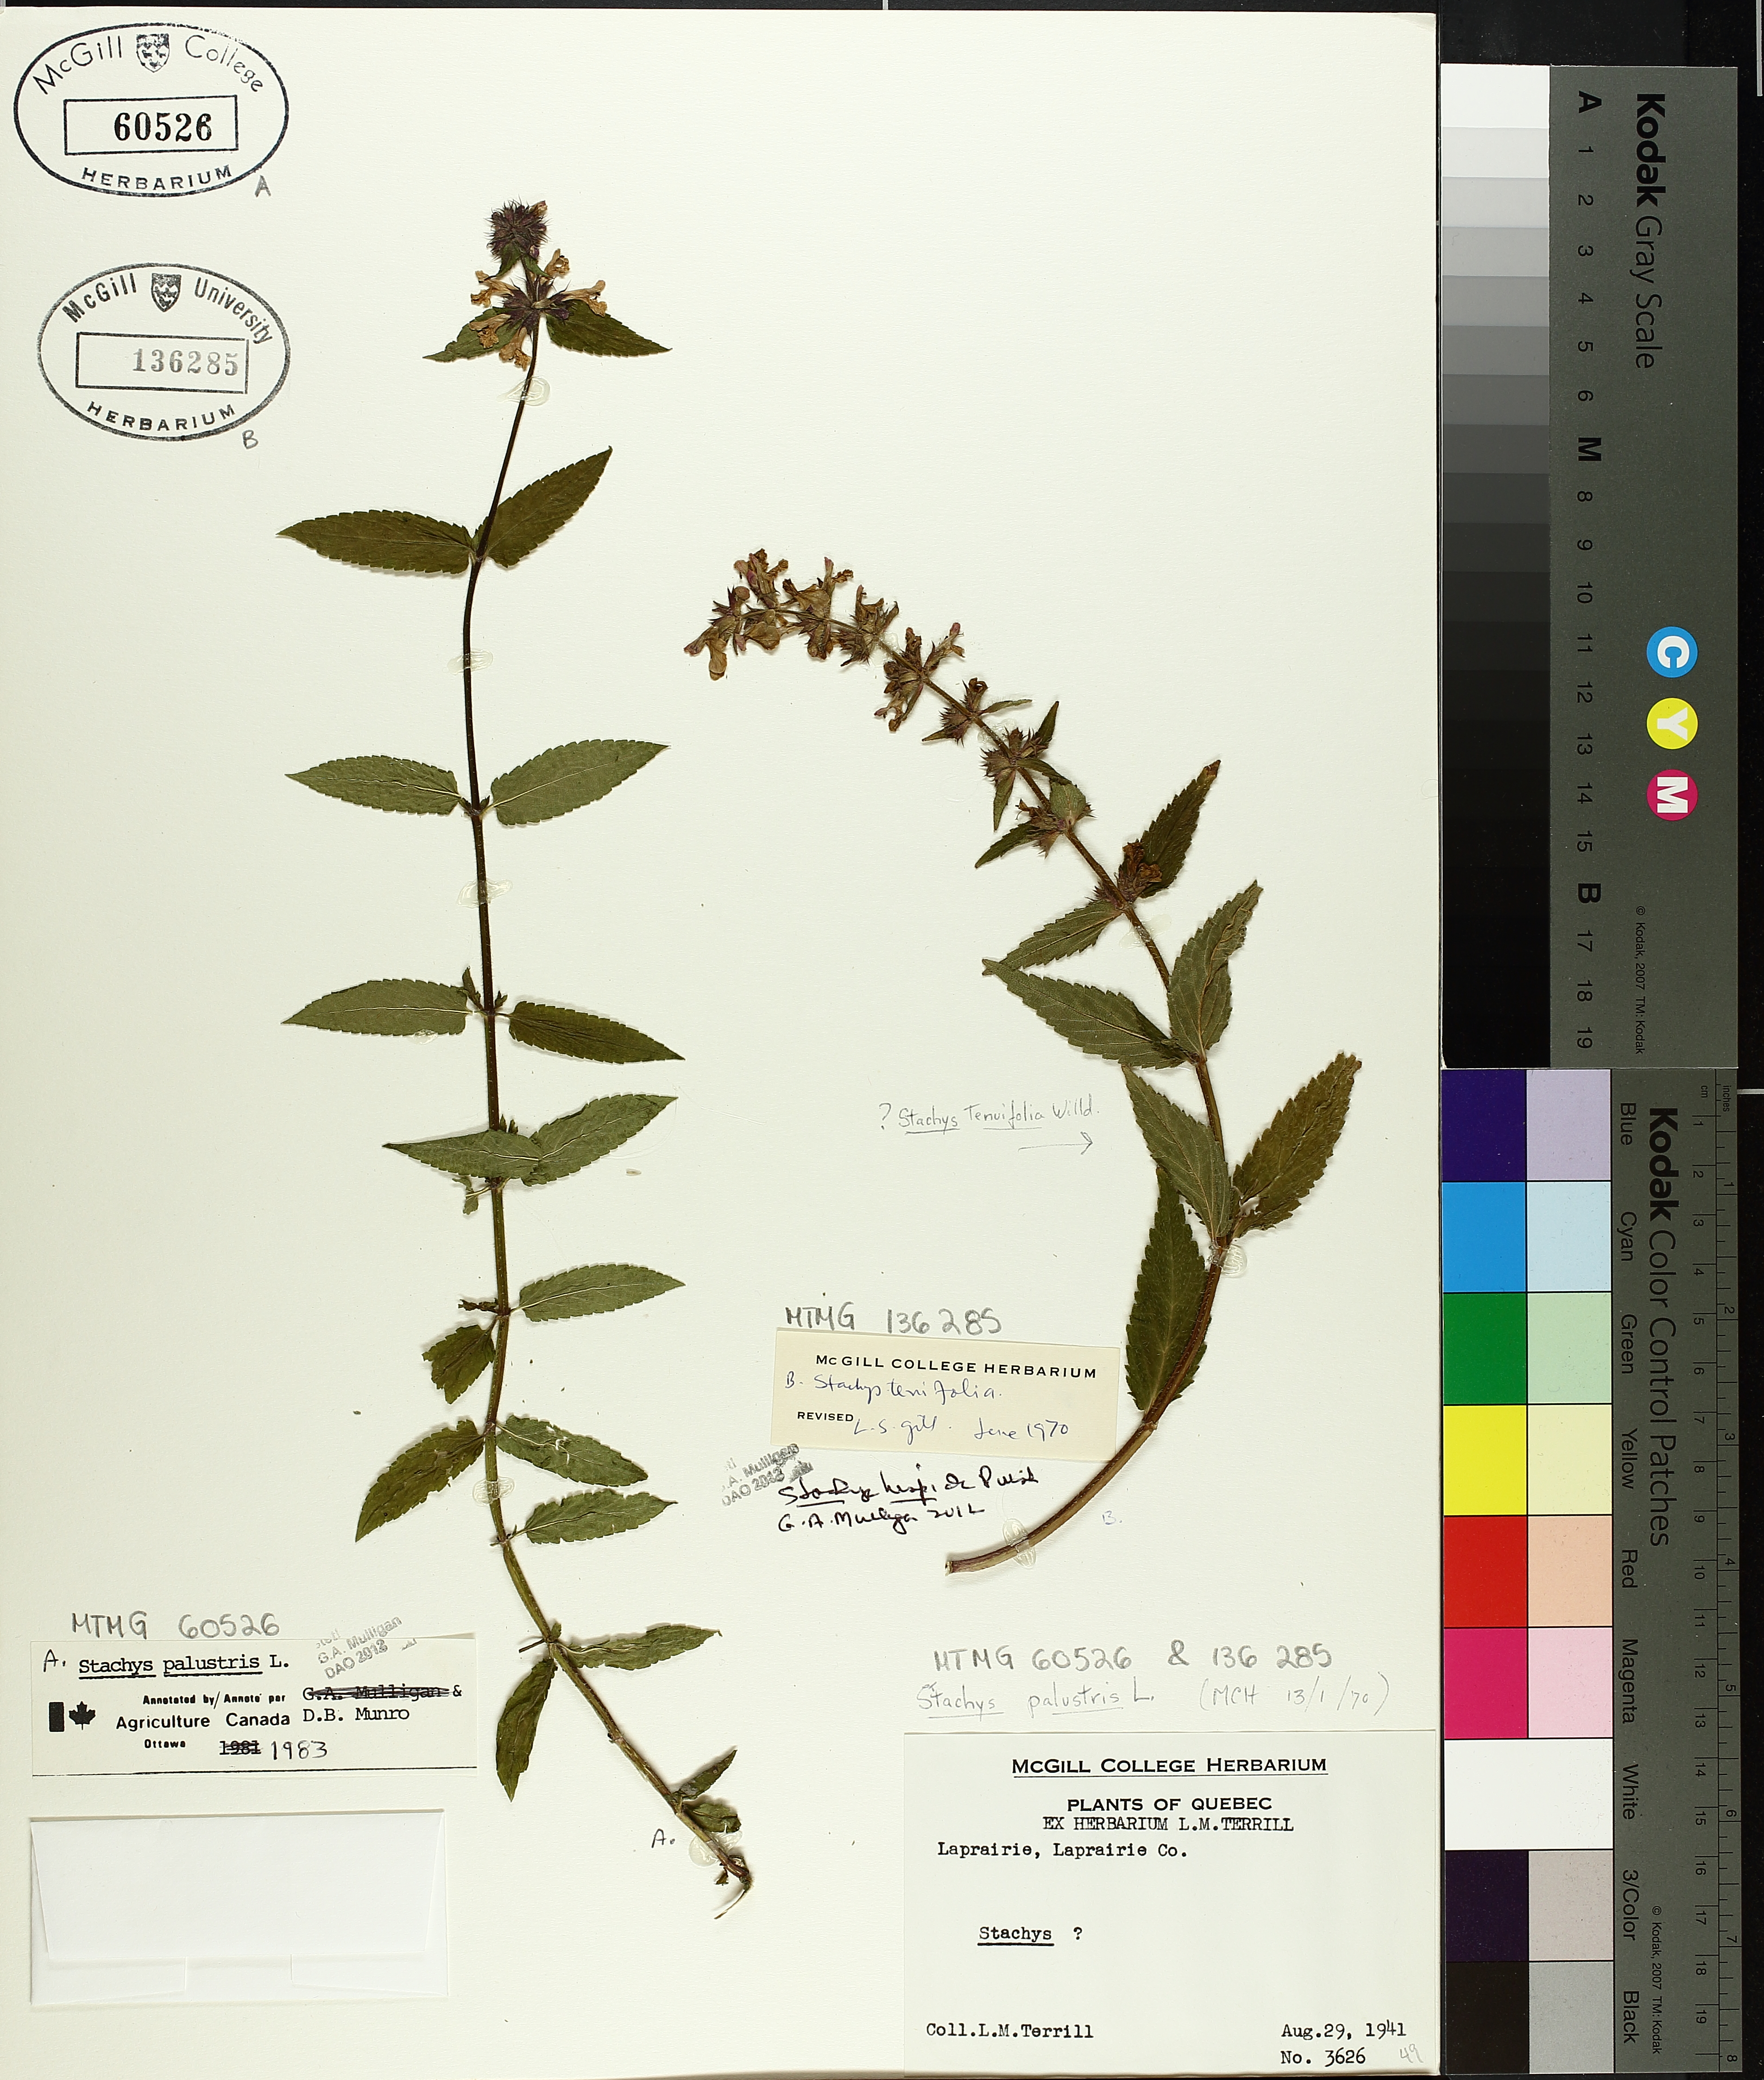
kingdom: Plantae
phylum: Tracheophyta
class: Magnoliopsida
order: Lamiales
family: Lamiaceae
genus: Stachys
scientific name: Stachys palustris
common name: Marsh woundwort
